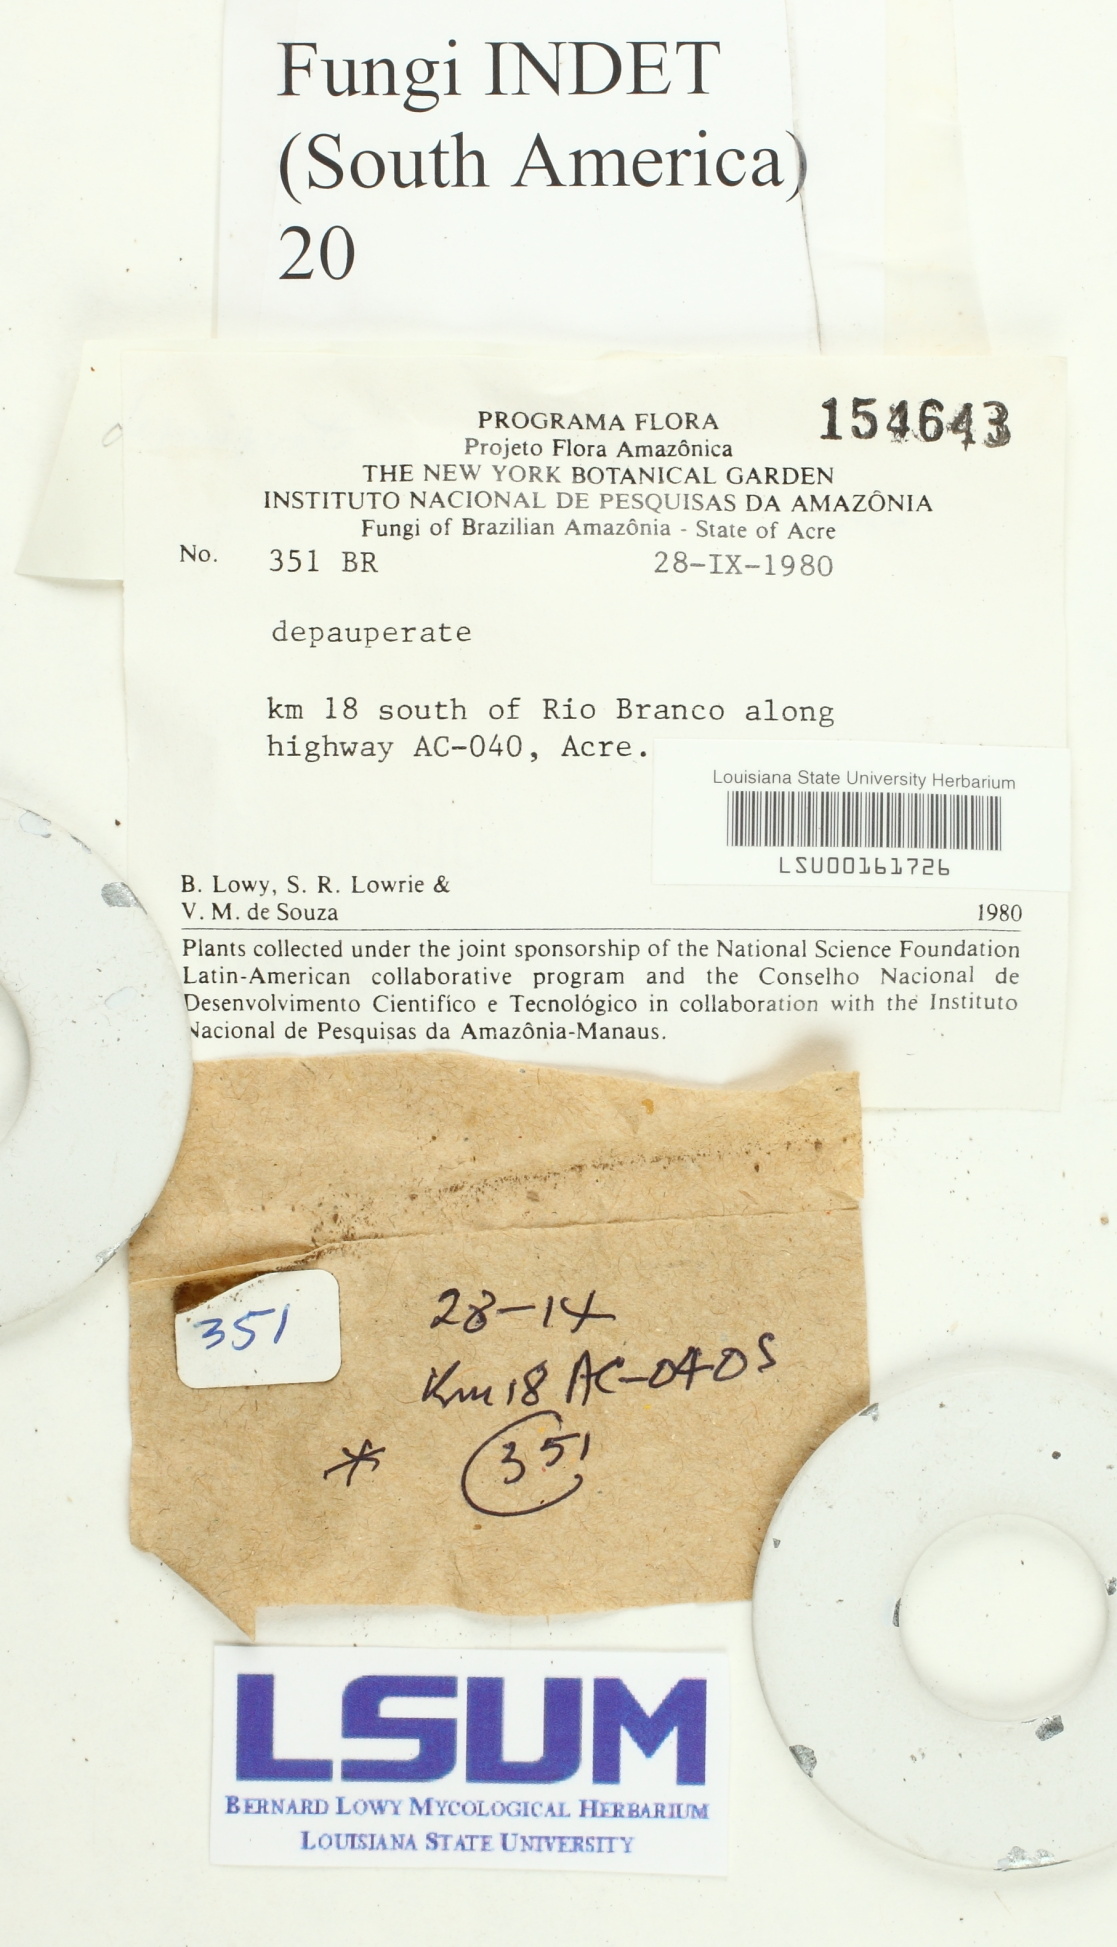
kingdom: Fungi
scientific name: Fungi
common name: Fungi
